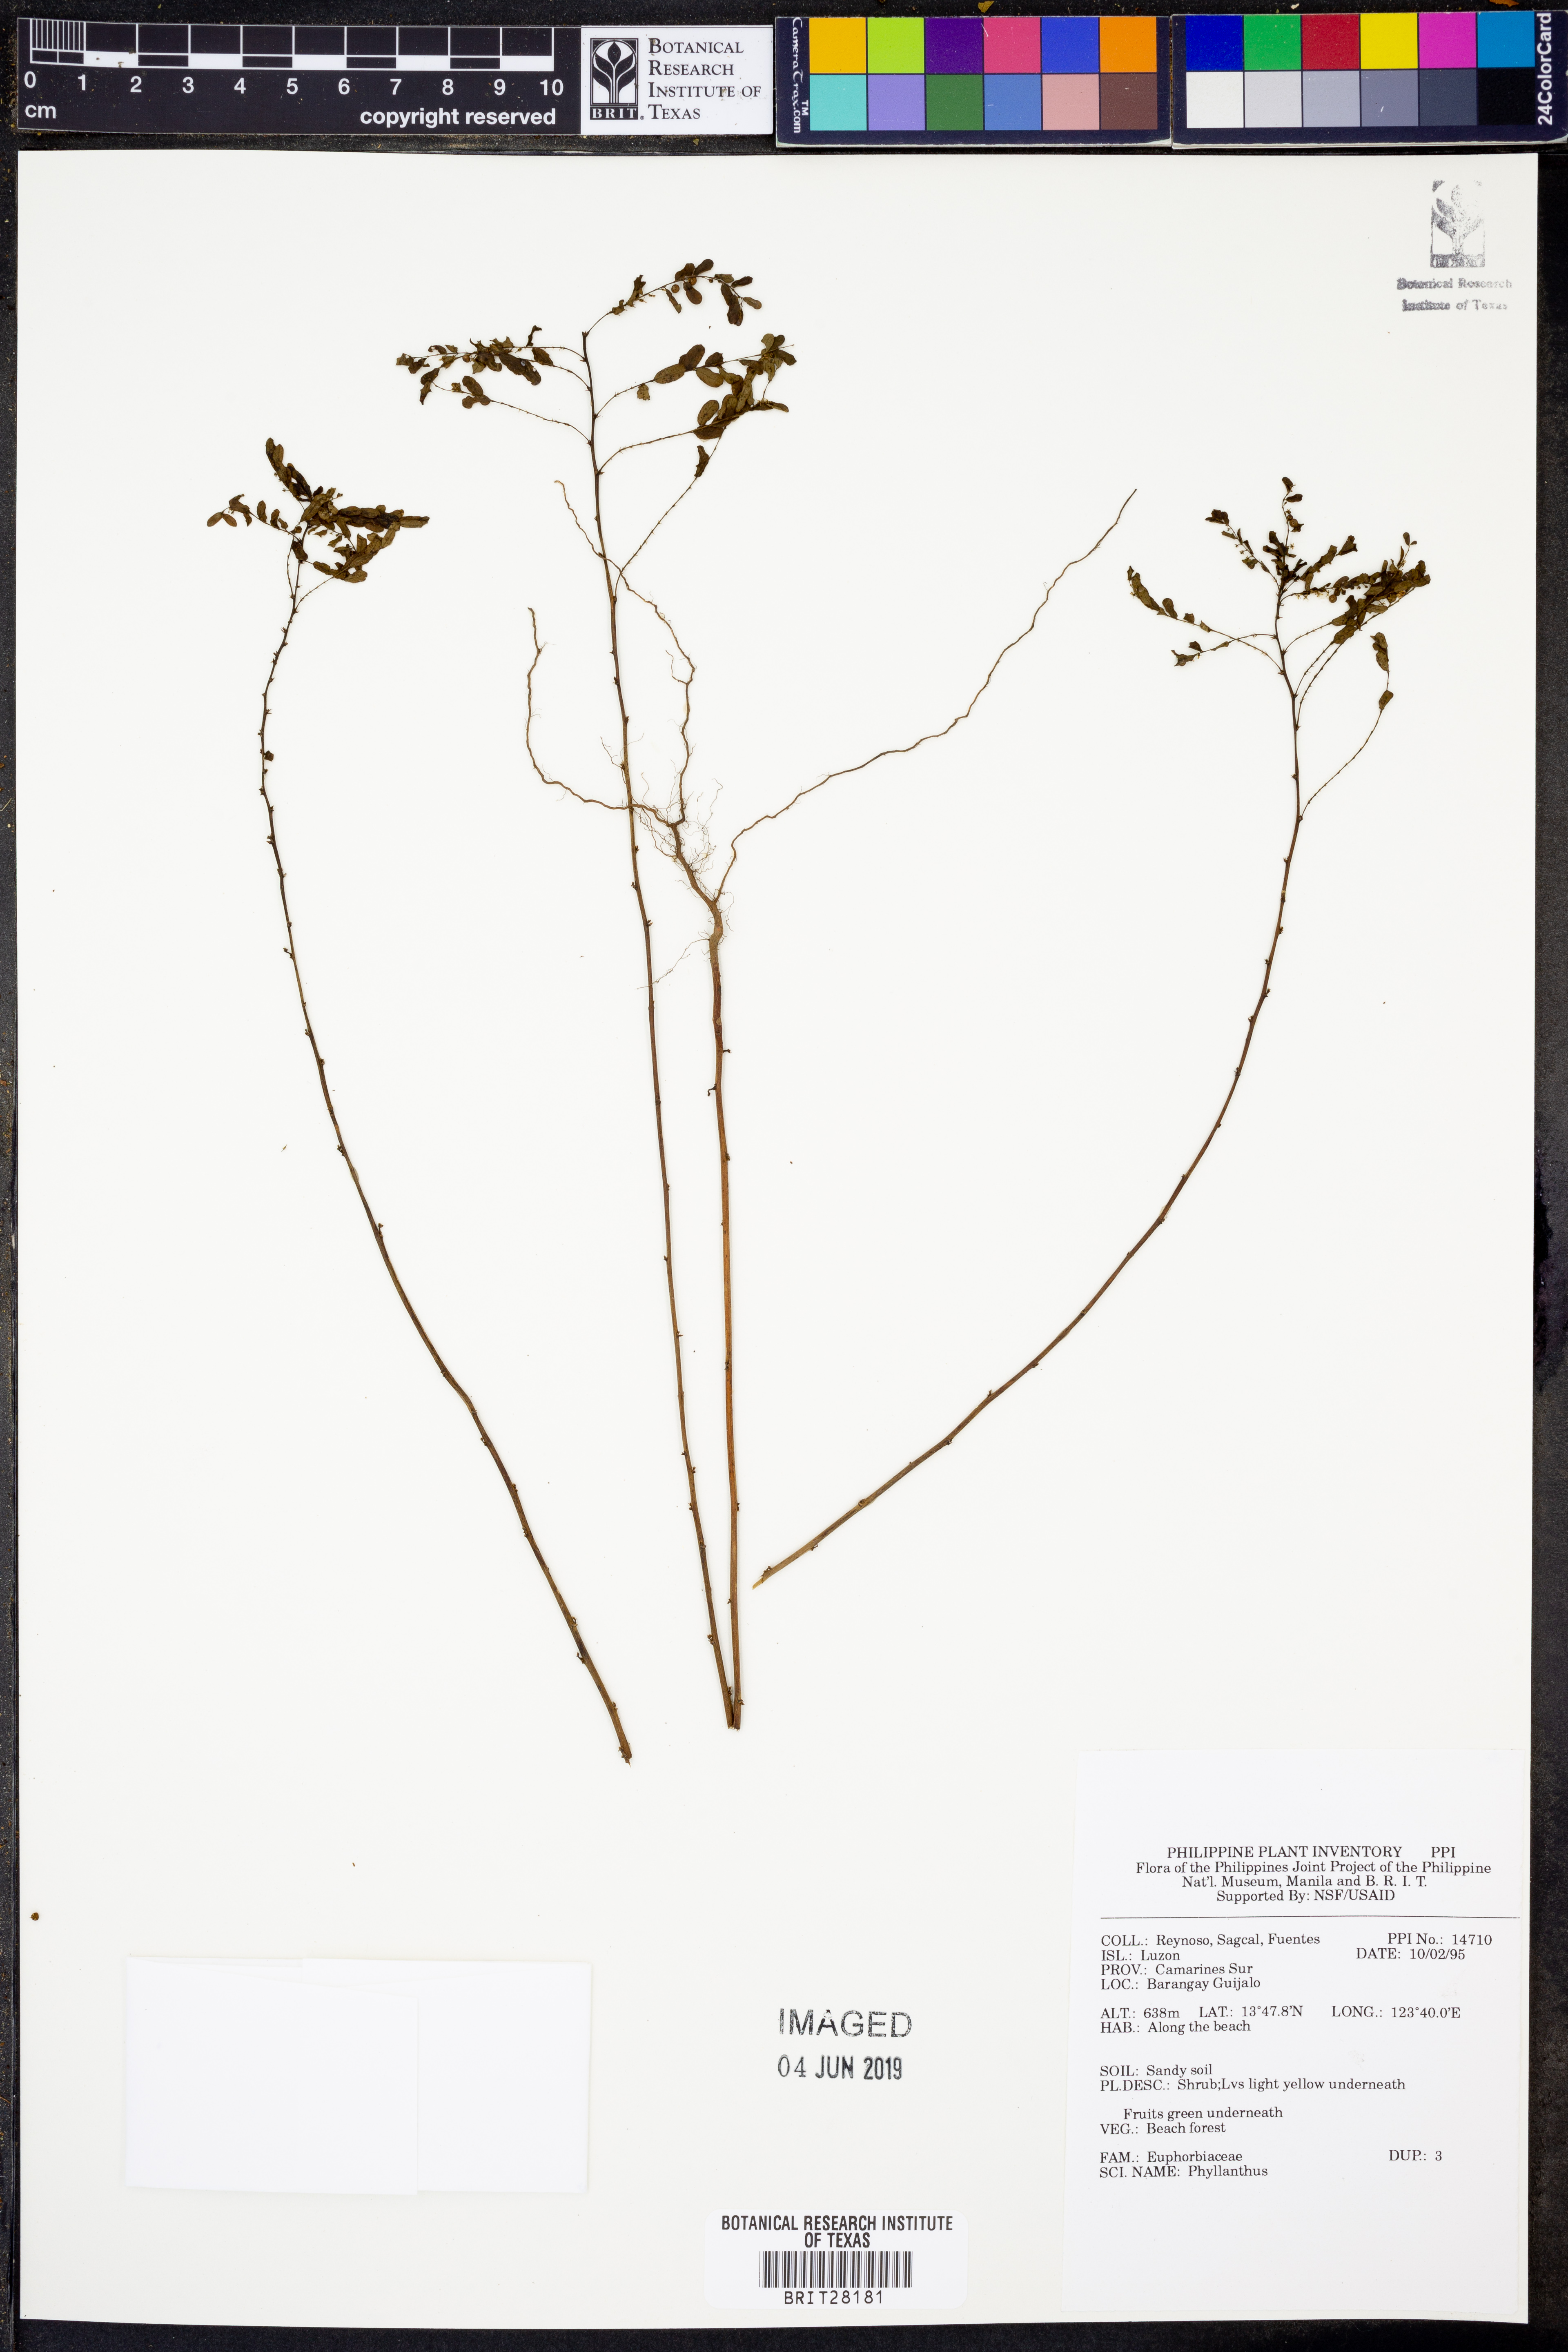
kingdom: Plantae
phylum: Tracheophyta
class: Magnoliopsida
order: Malpighiales
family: Phyllanthaceae
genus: Phyllanthus
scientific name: Phyllanthus
